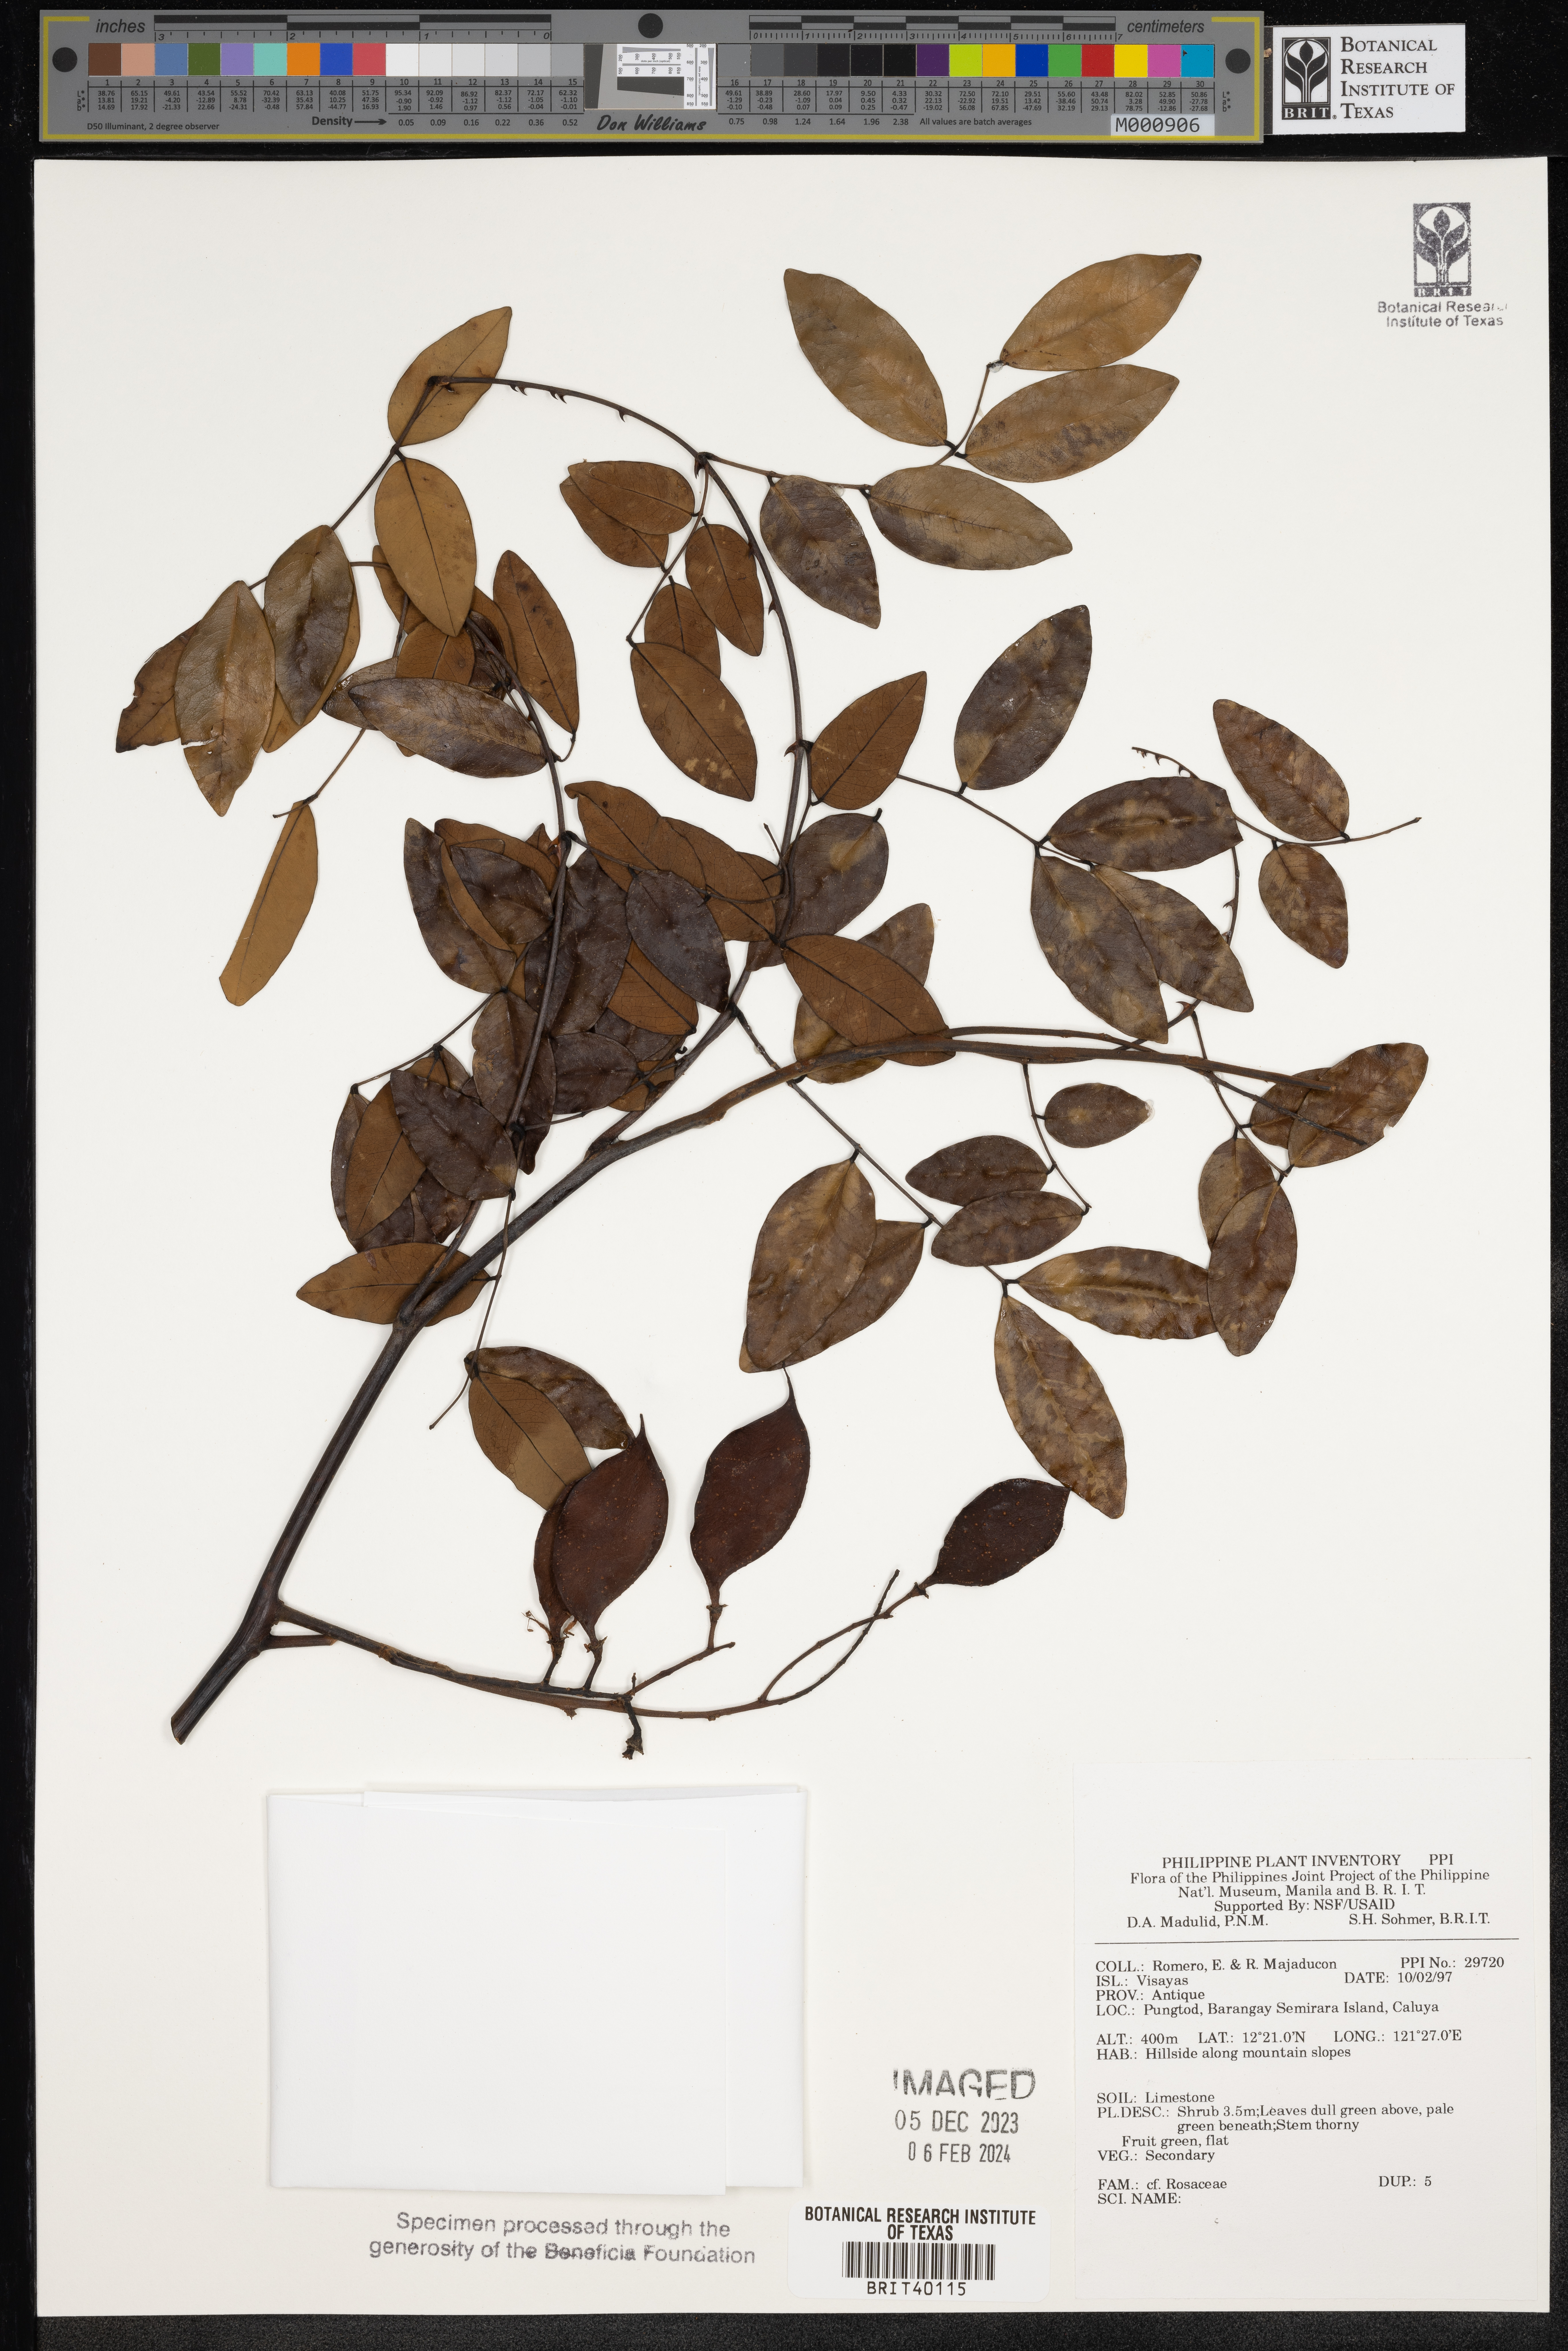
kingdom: Plantae
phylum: Tracheophyta
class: Magnoliopsida
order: Rosales
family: Rosaceae
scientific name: Rosaceae
